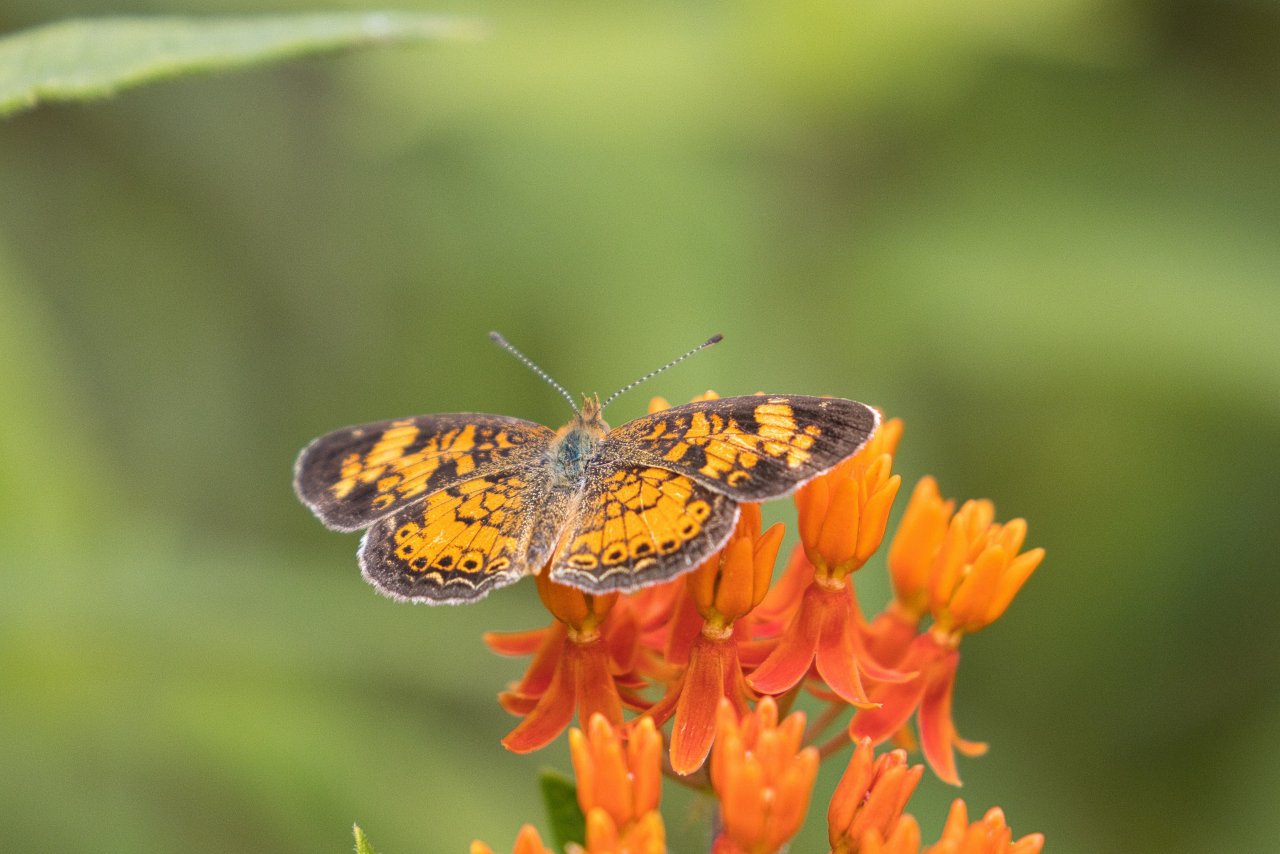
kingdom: Animalia
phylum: Arthropoda
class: Insecta
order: Lepidoptera
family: Nymphalidae
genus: Phyciodes
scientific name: Phyciodes tharos
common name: Pearl Crescent
